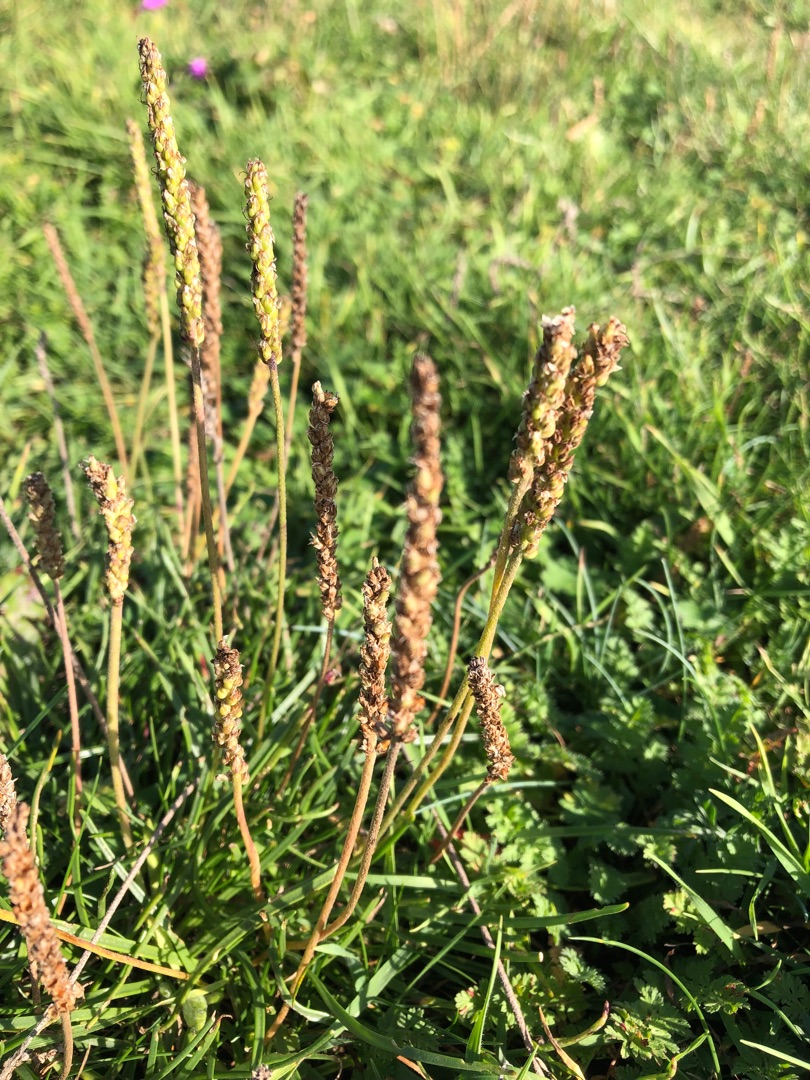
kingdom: Plantae
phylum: Tracheophyta
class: Magnoliopsida
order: Lamiales
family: Plantaginaceae
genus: Plantago
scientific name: Plantago maritima
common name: Strand-vejbred
